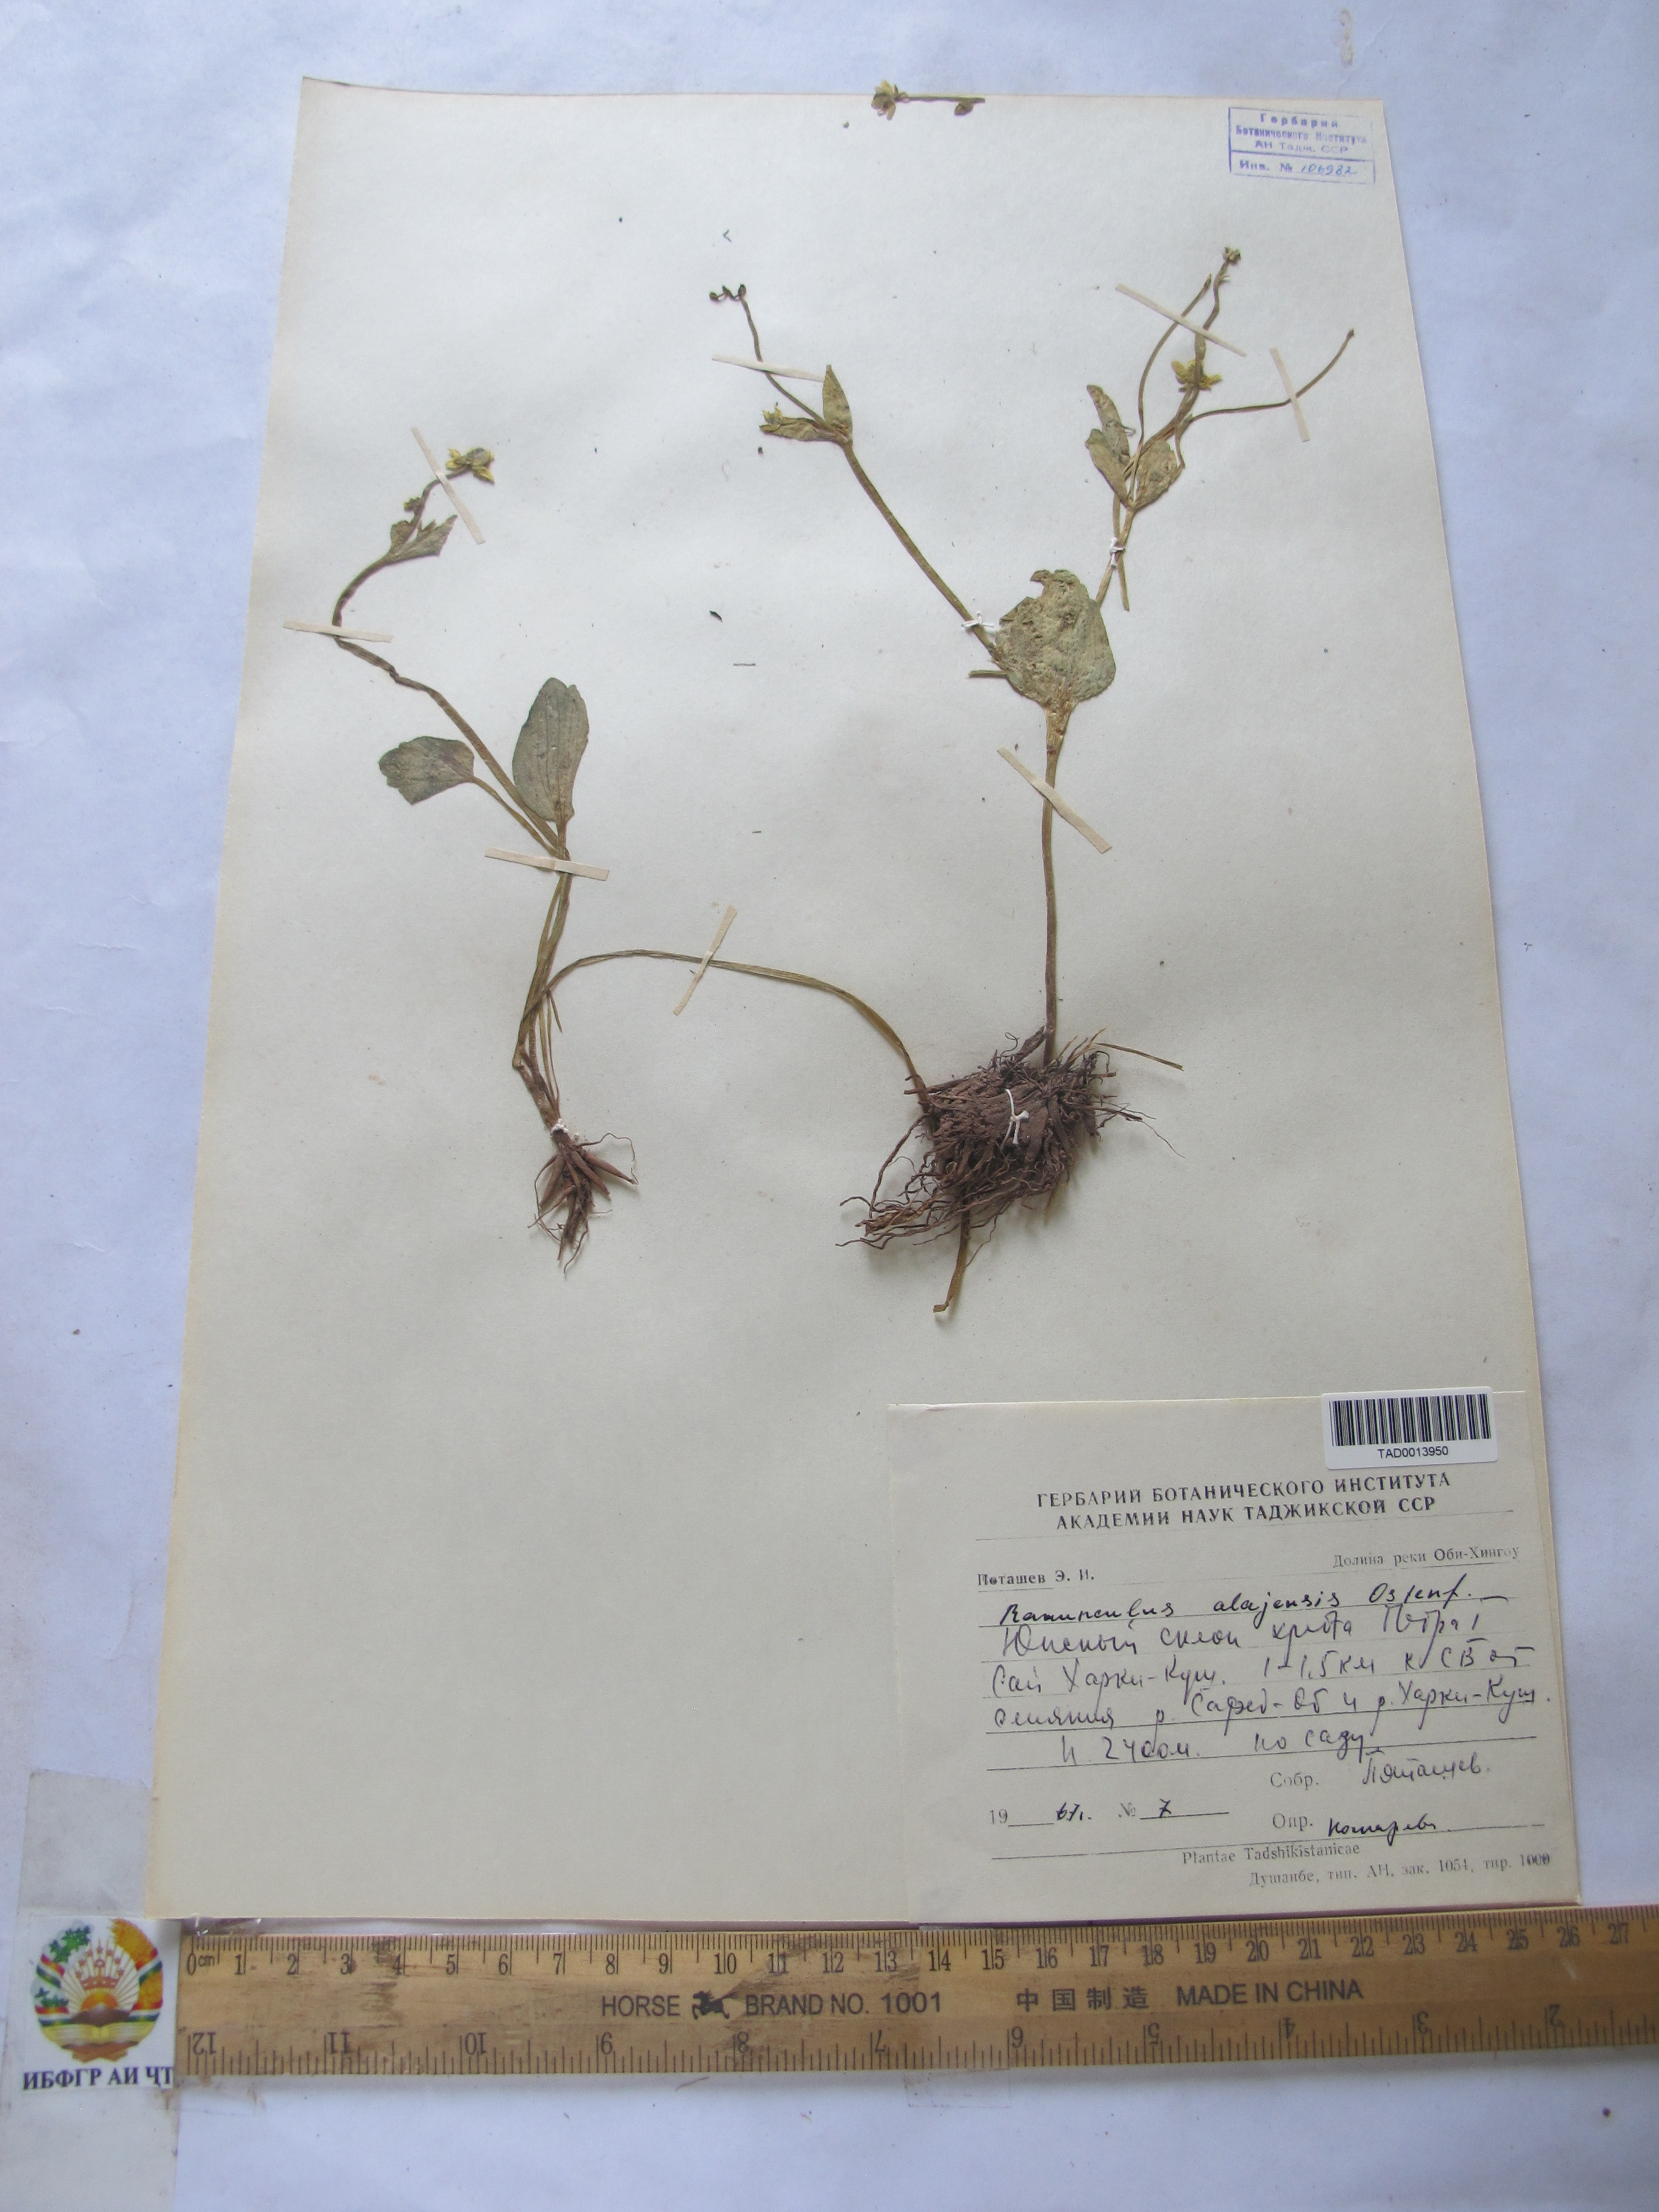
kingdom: Plantae
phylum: Tracheophyta
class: Magnoliopsida
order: Ranunculales
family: Ranunculaceae
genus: Ranunculus
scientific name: Ranunculus alaiensis
